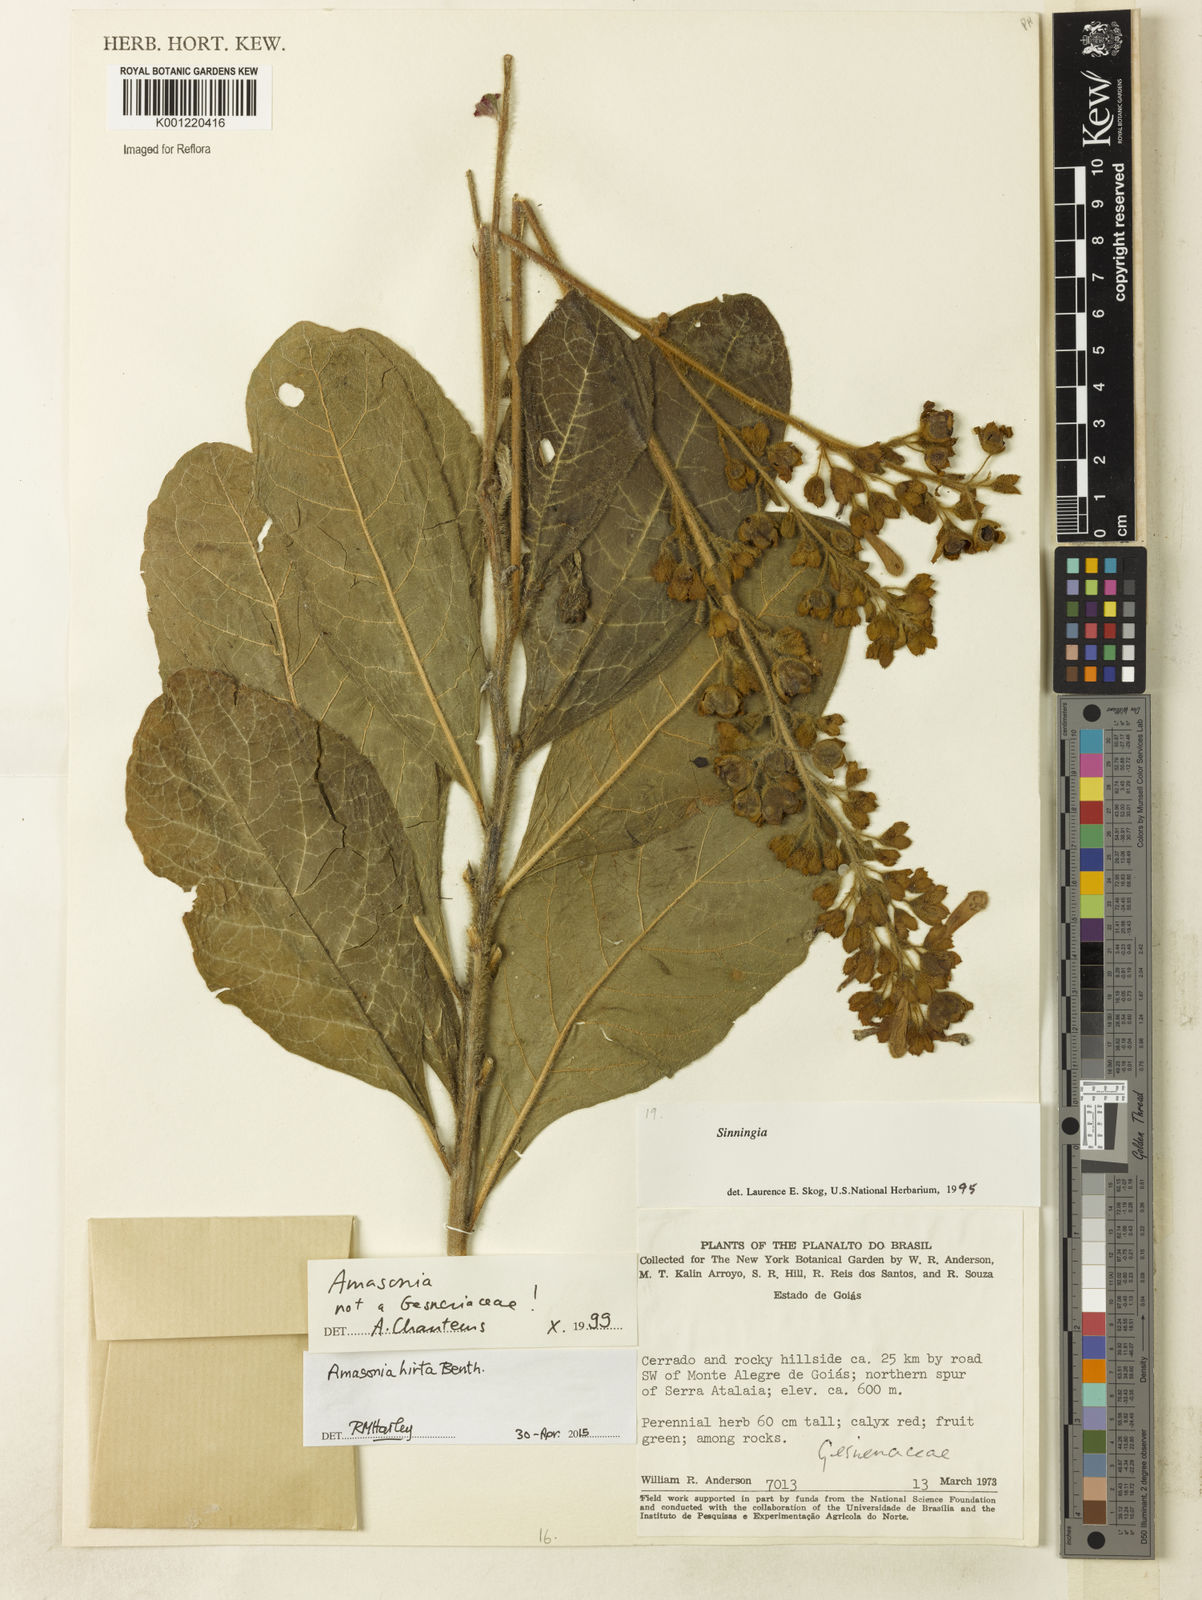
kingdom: Plantae
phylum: Tracheophyta
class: Magnoliopsida
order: Lamiales
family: Lamiaceae
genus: Amasonia
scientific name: Amasonia hirta
